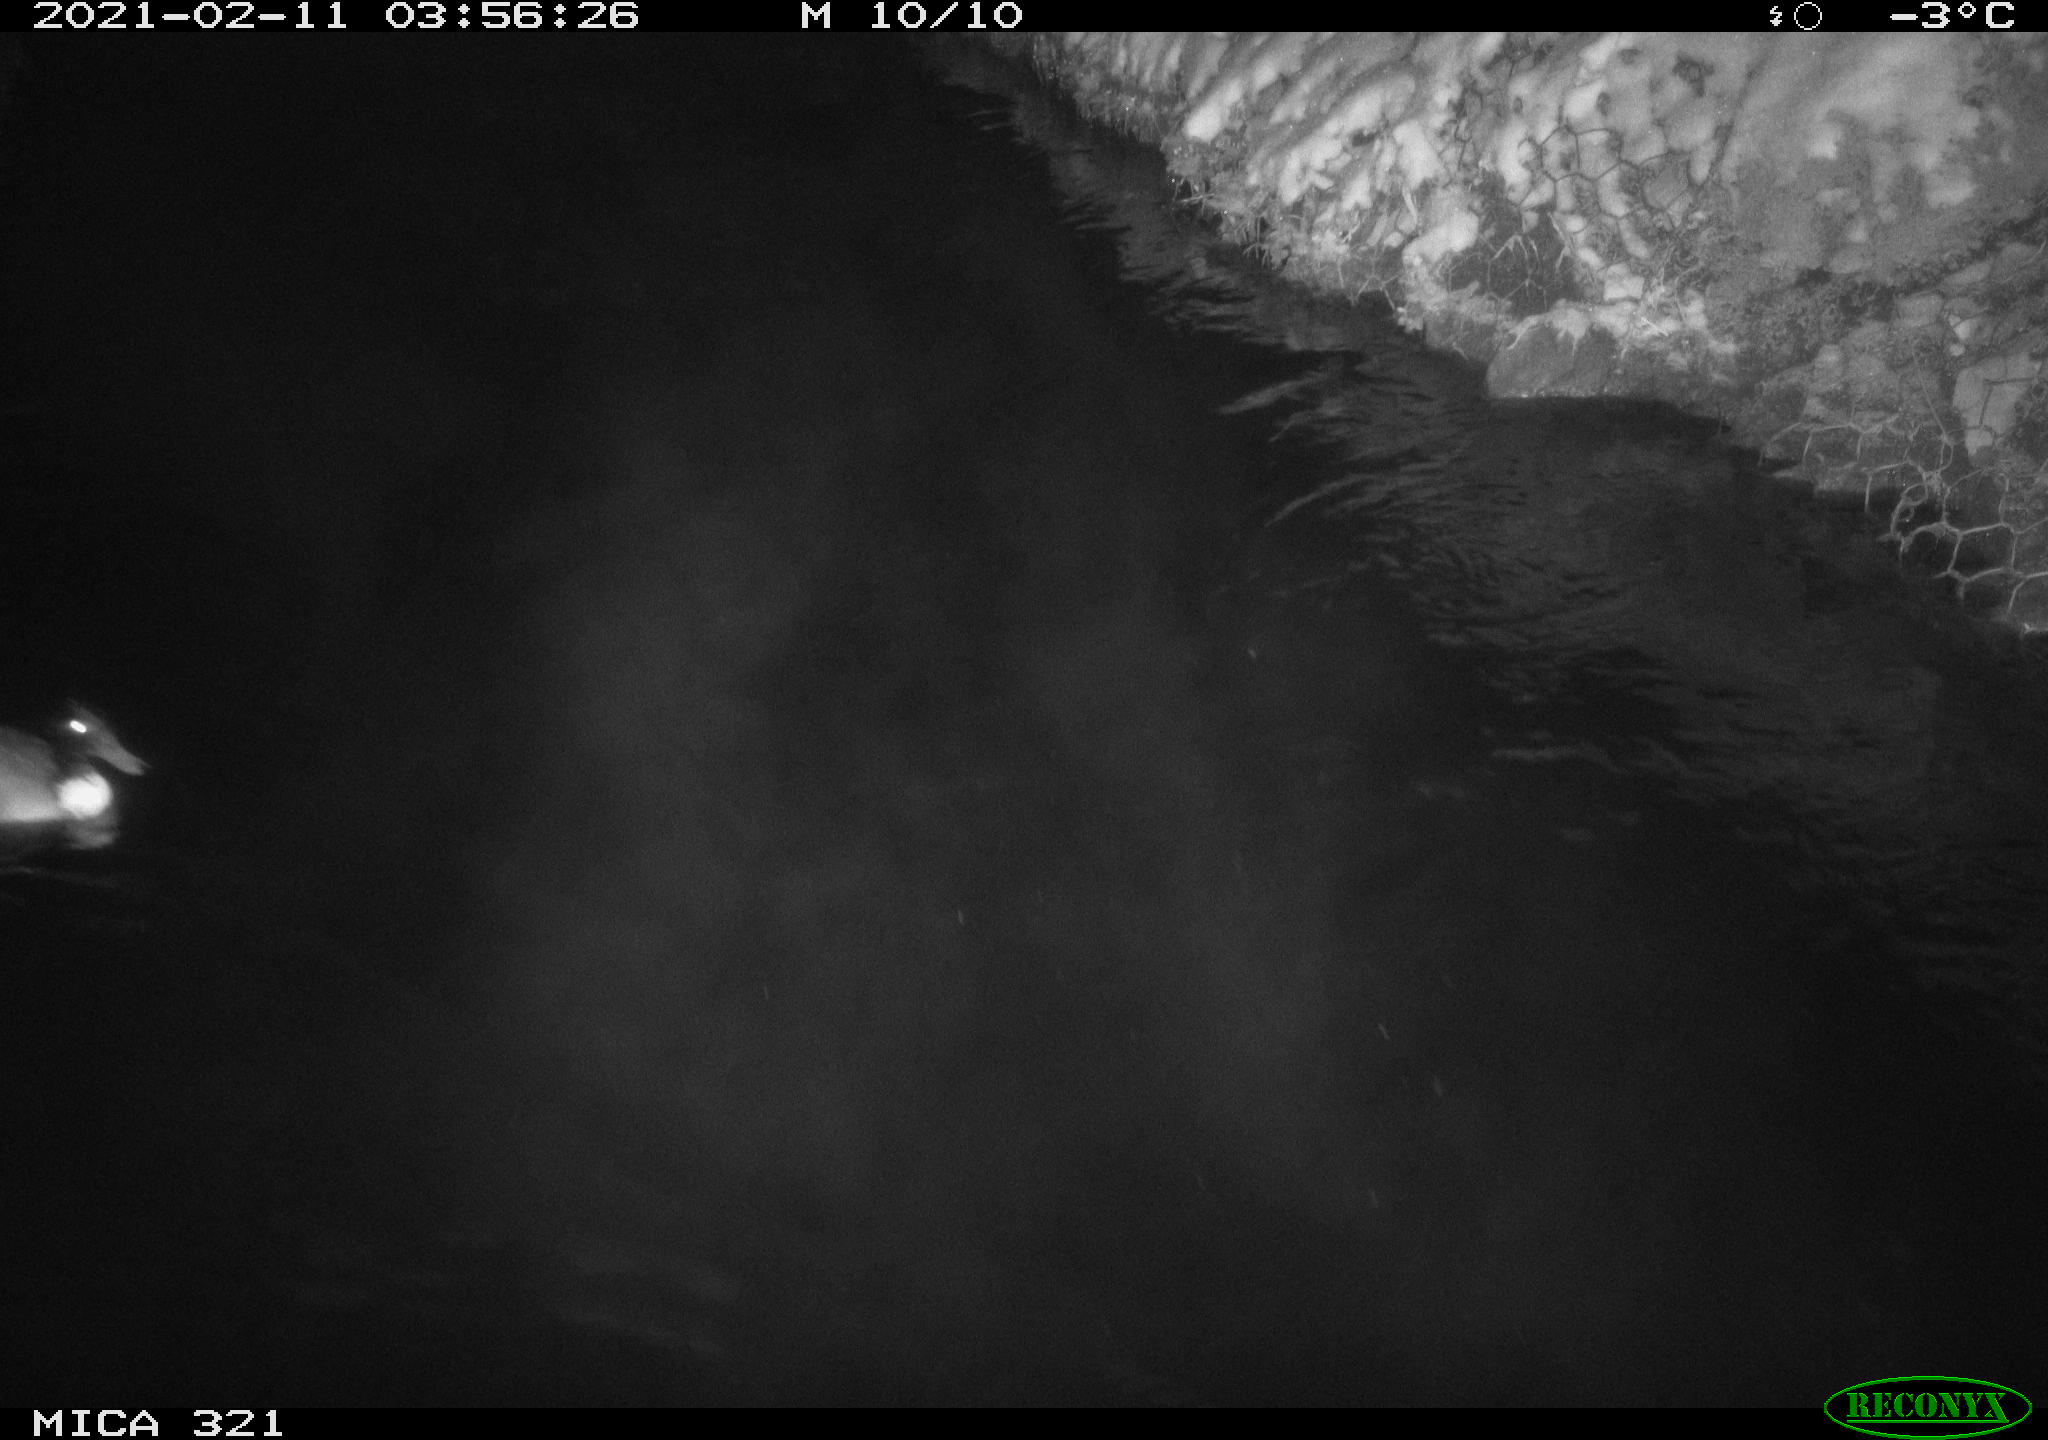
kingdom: Animalia
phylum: Chordata
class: Aves
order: Anseriformes
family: Anatidae
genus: Anas
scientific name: Anas platyrhynchos
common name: Mallard
